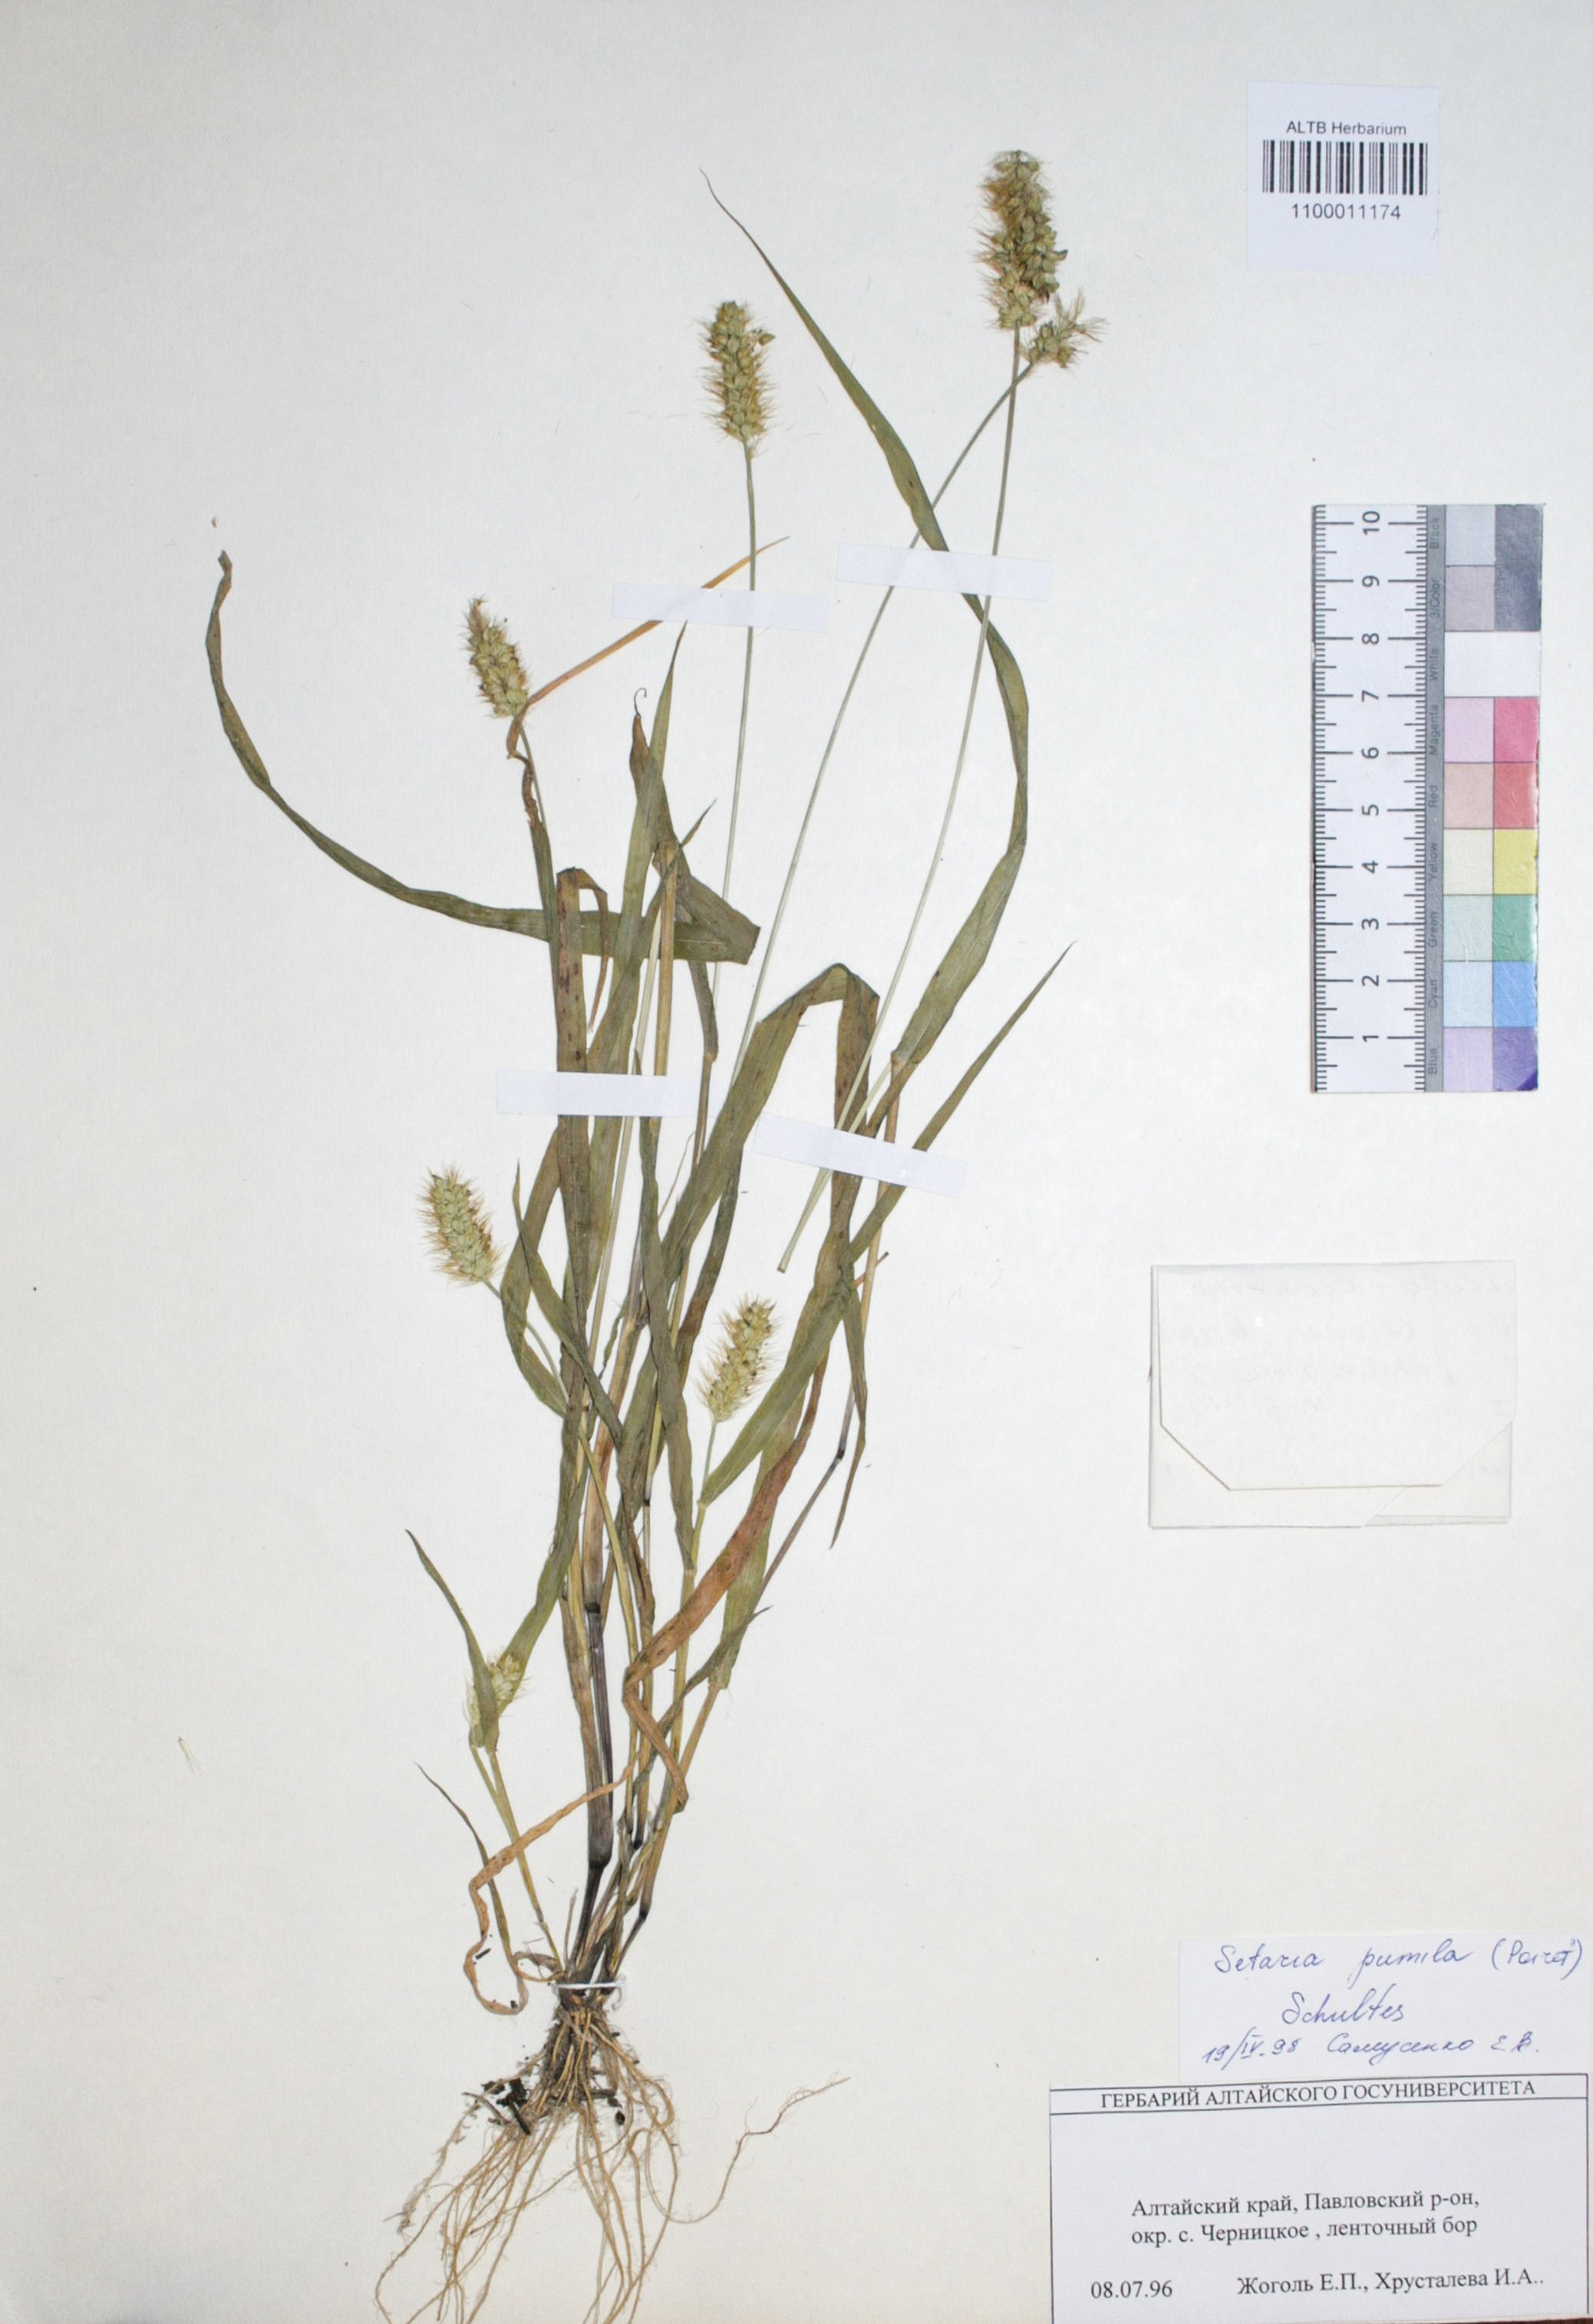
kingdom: Plantae
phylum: Tracheophyta
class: Liliopsida
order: Poales
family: Poaceae
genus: Setaria
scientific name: Setaria pumila
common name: Yellow bristle-grass
